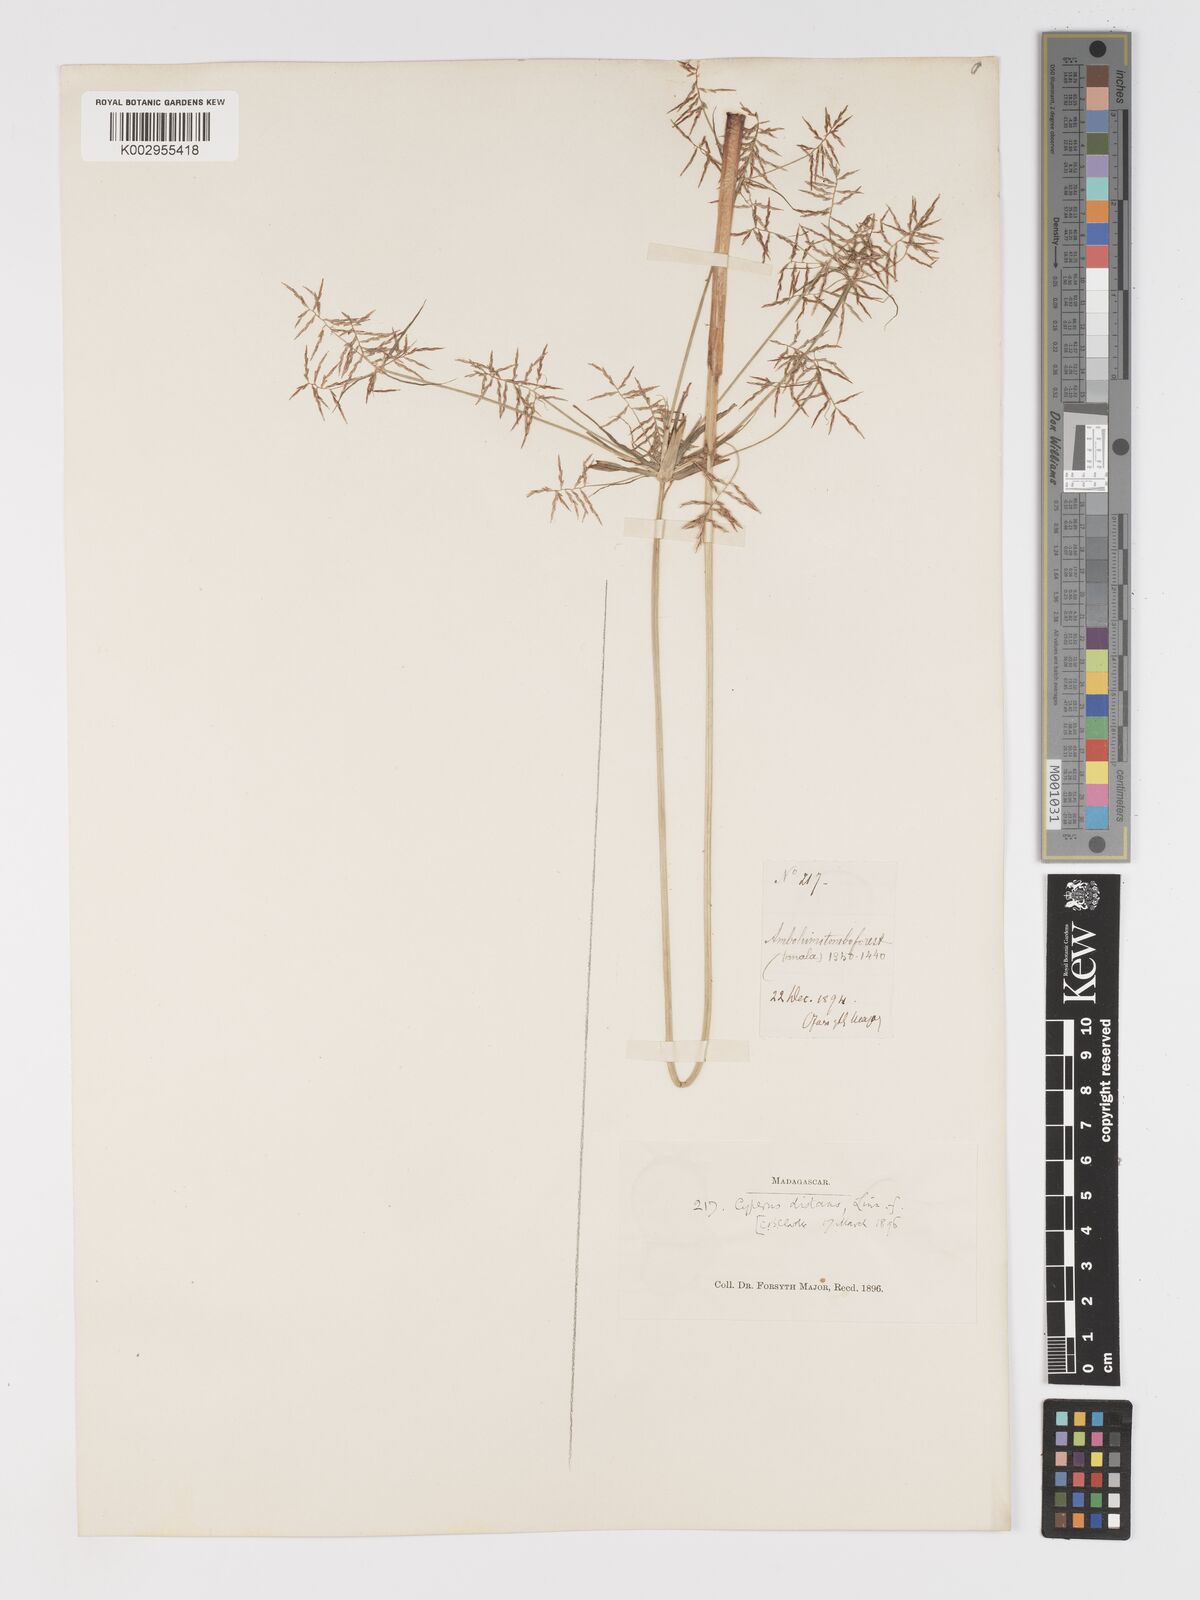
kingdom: Plantae
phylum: Tracheophyta
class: Liliopsida
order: Poales
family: Cyperaceae
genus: Cyperus
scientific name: Cyperus distans
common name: Slender cyperus
